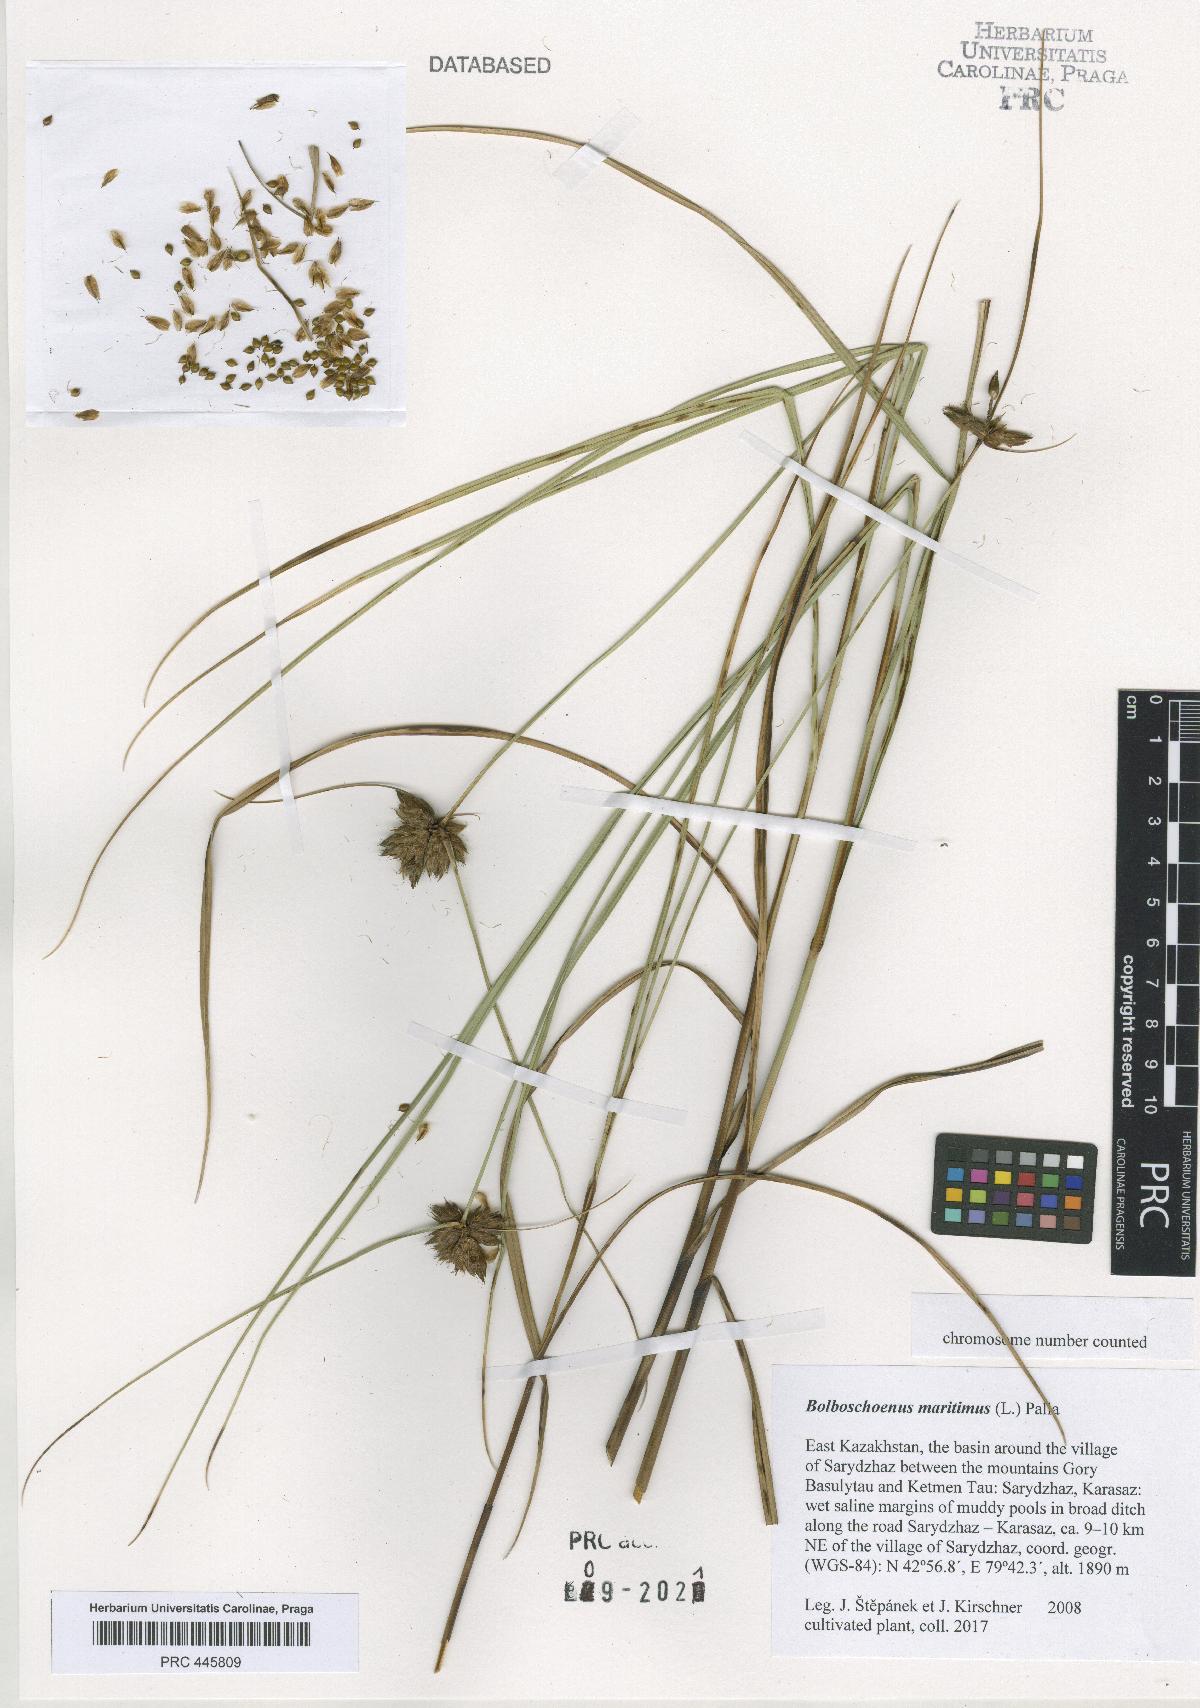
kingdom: Plantae
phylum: Tracheophyta
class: Liliopsida
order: Poales
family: Cyperaceae
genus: Bolboschoenus
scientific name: Bolboschoenus maritimus
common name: Sea club-rush
